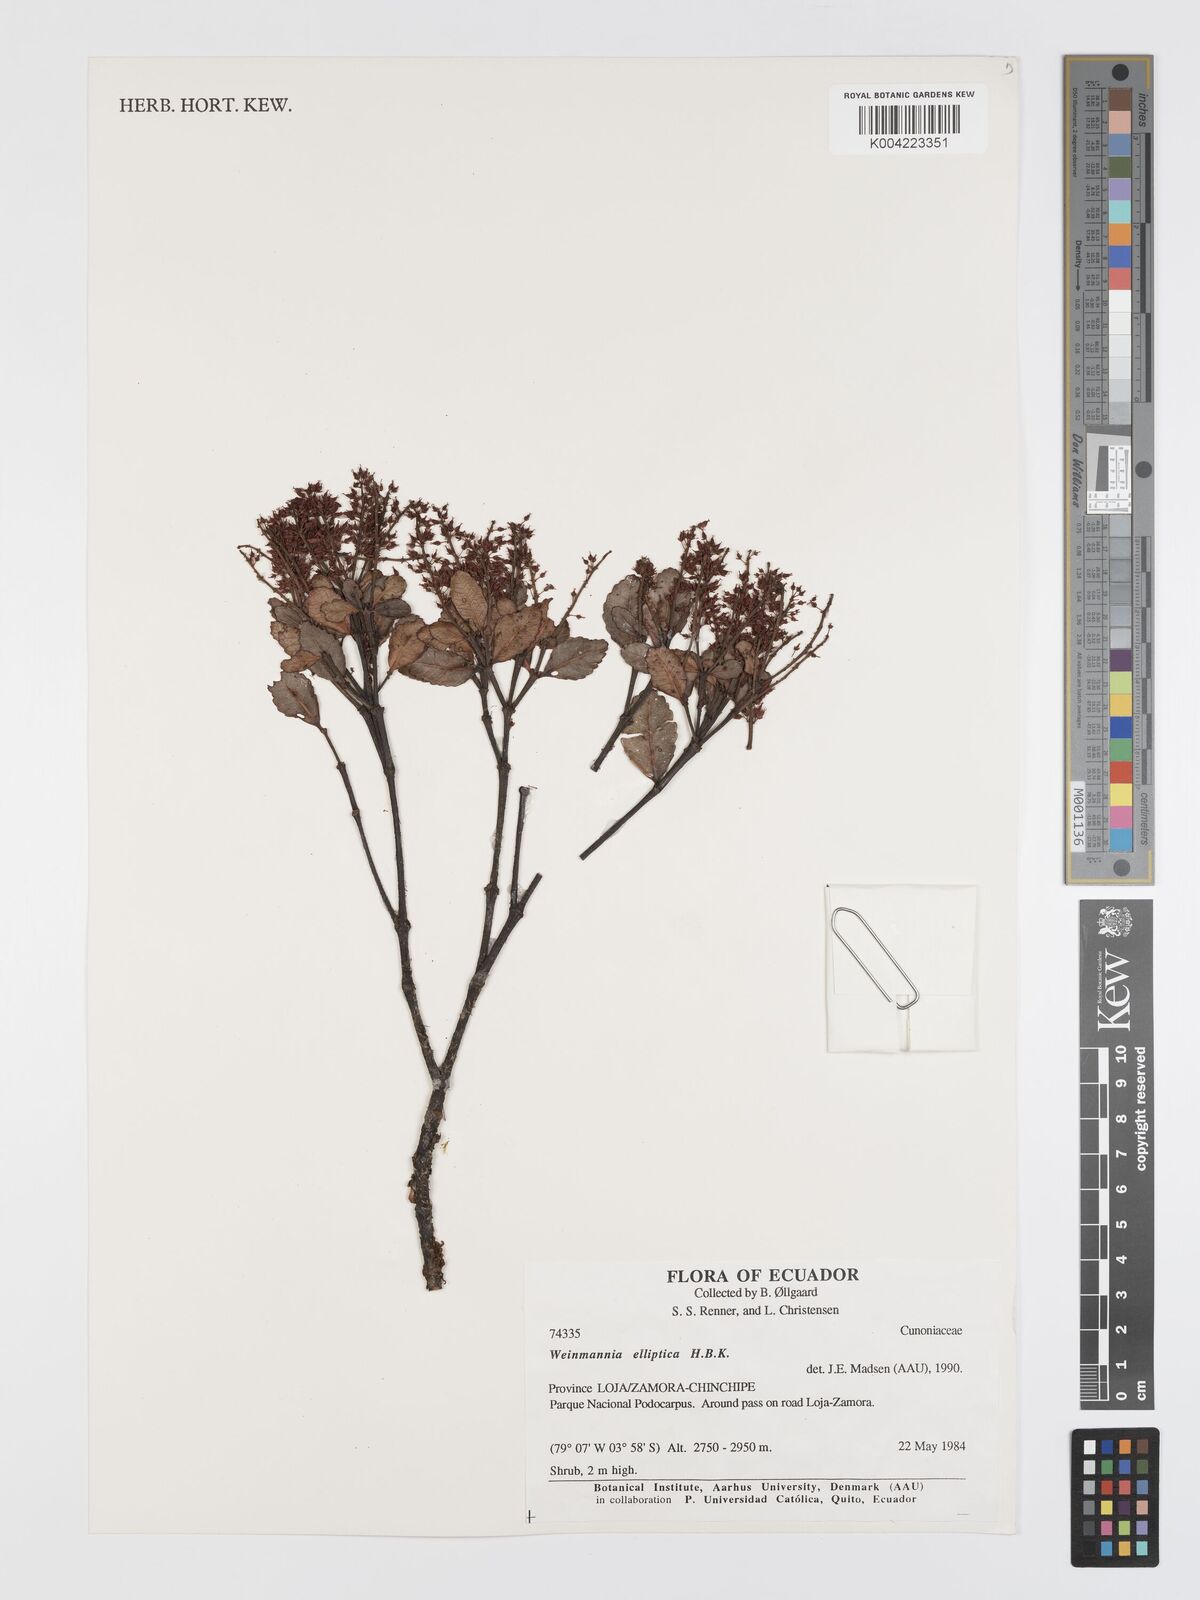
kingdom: Plantae
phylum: Tracheophyta
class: Magnoliopsida
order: Oxalidales
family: Cunoniaceae
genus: Weinmannia
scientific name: Weinmannia elliptica
